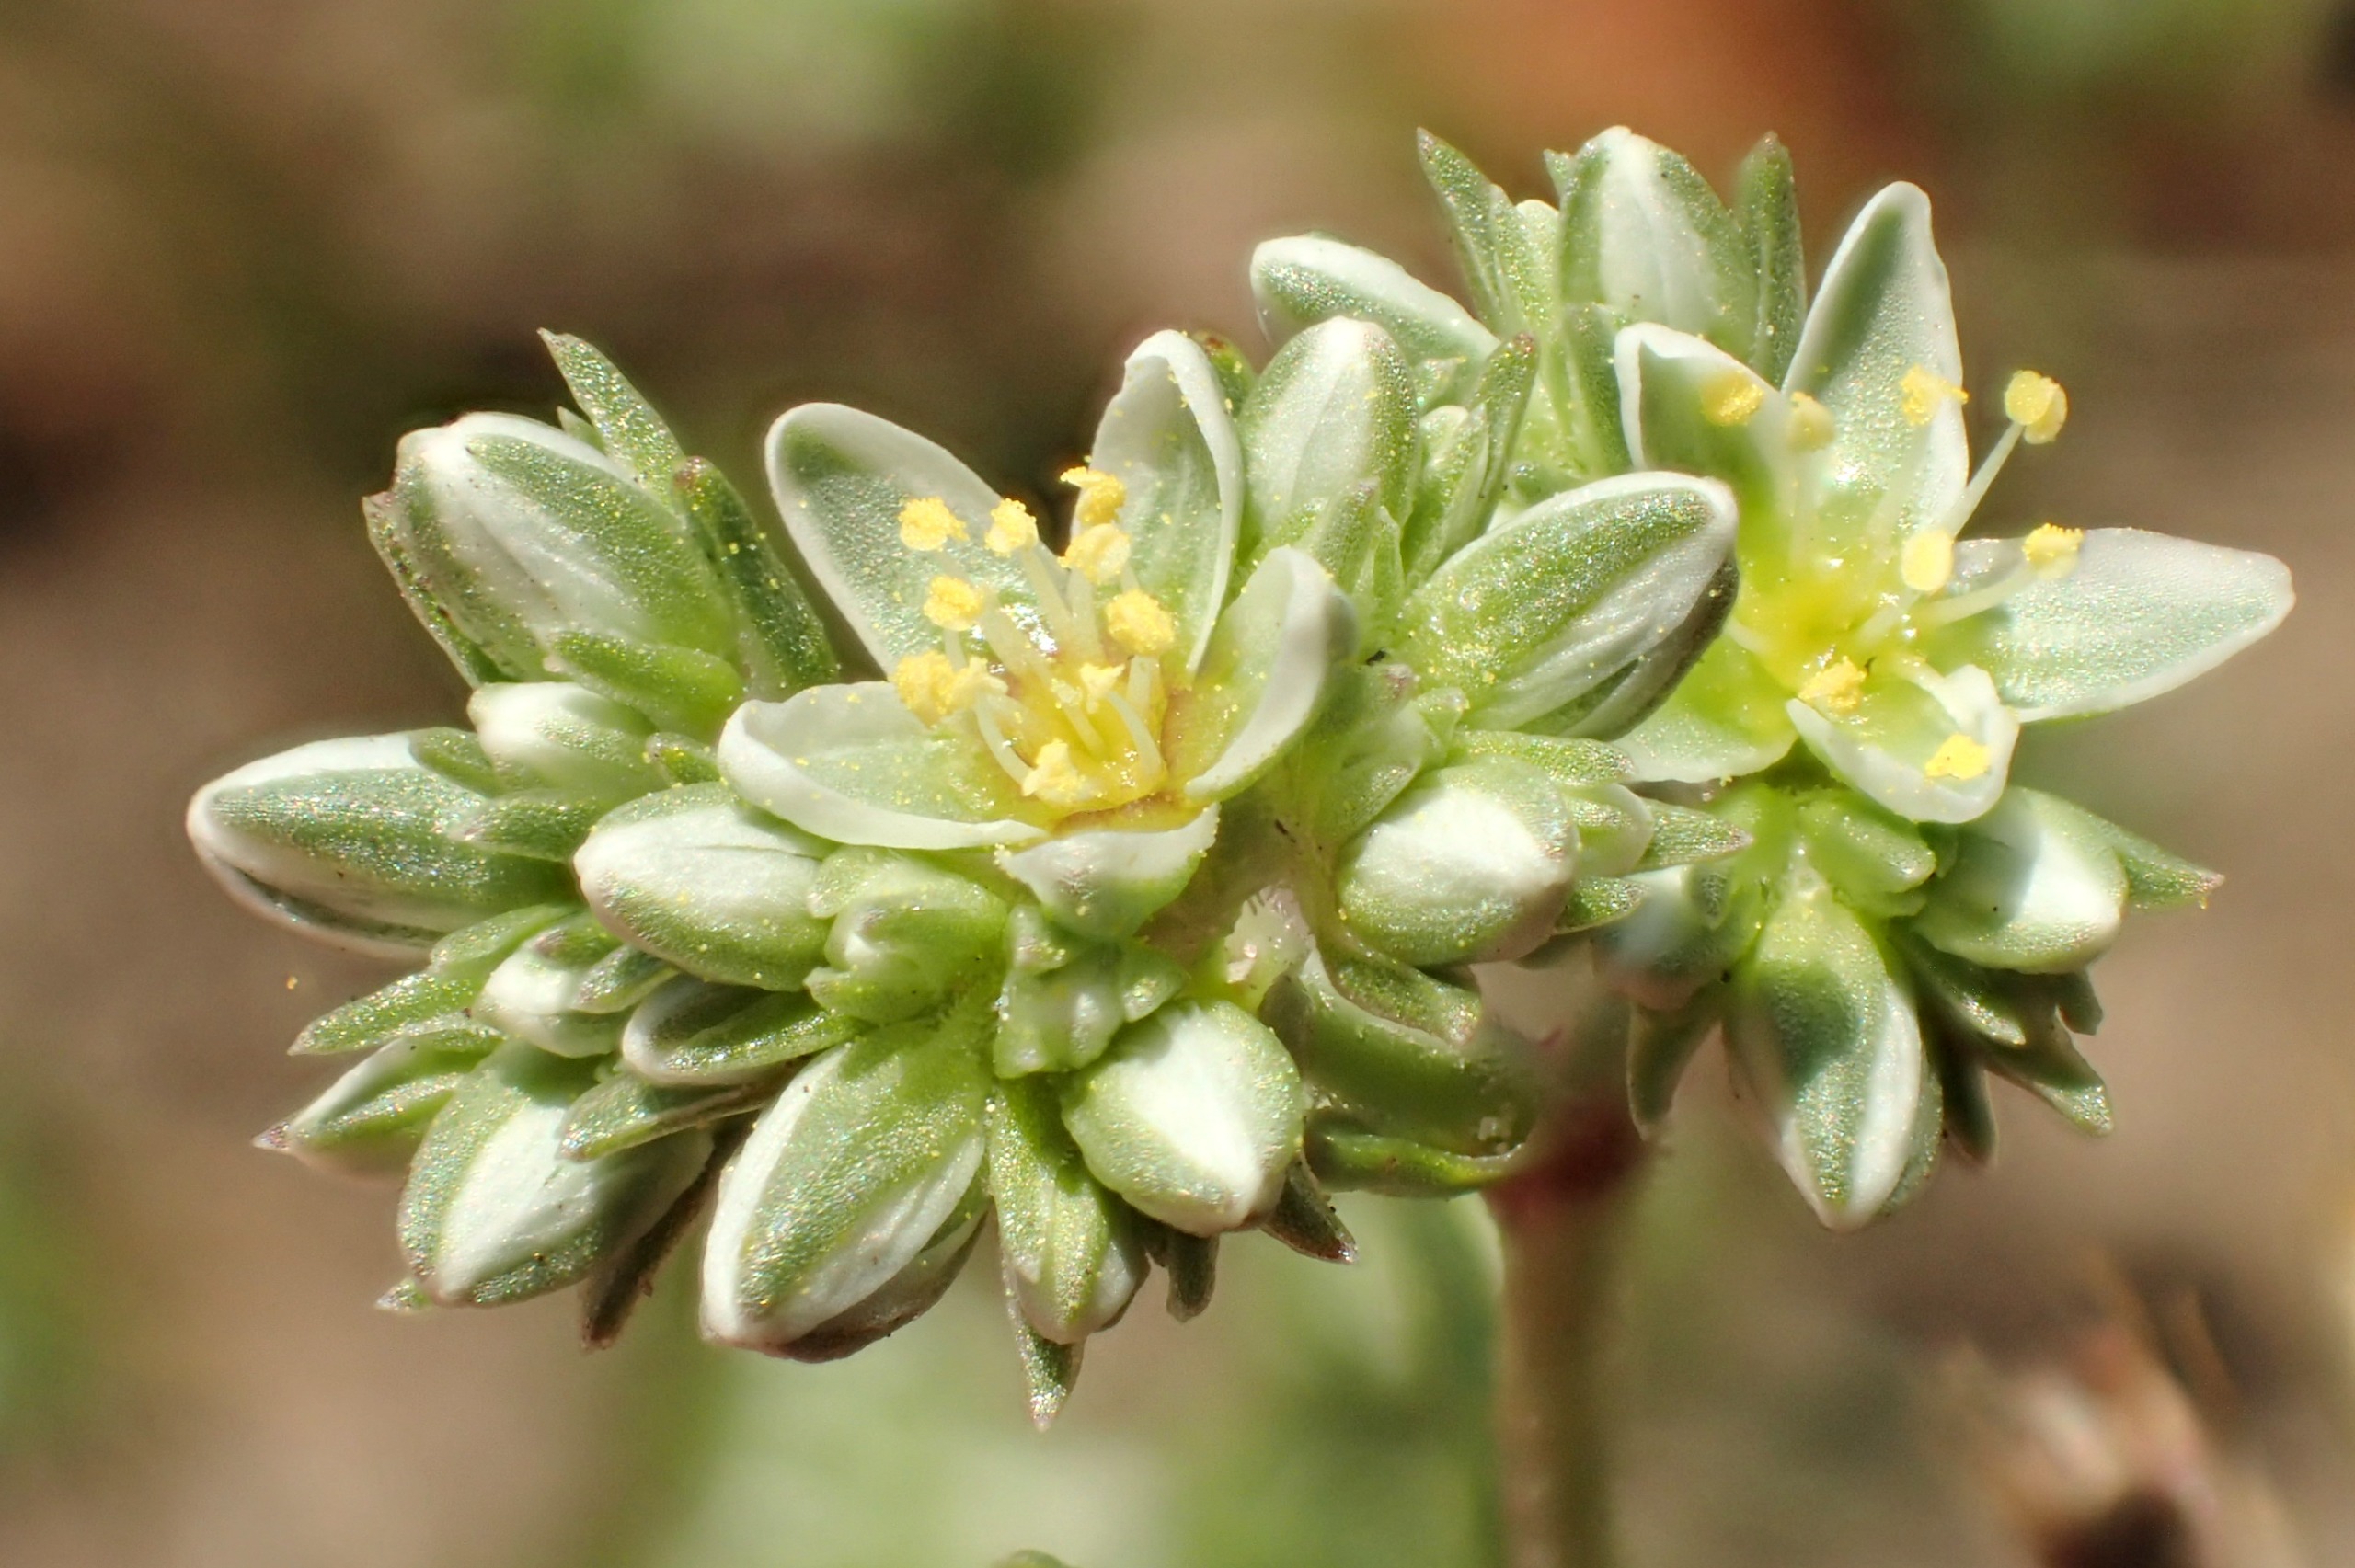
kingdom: Plantae
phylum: Tracheophyta
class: Magnoliopsida
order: Caryophyllales
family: Caryophyllaceae
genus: Scleranthus
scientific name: Scleranthus perennis
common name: Flerårig knavel
